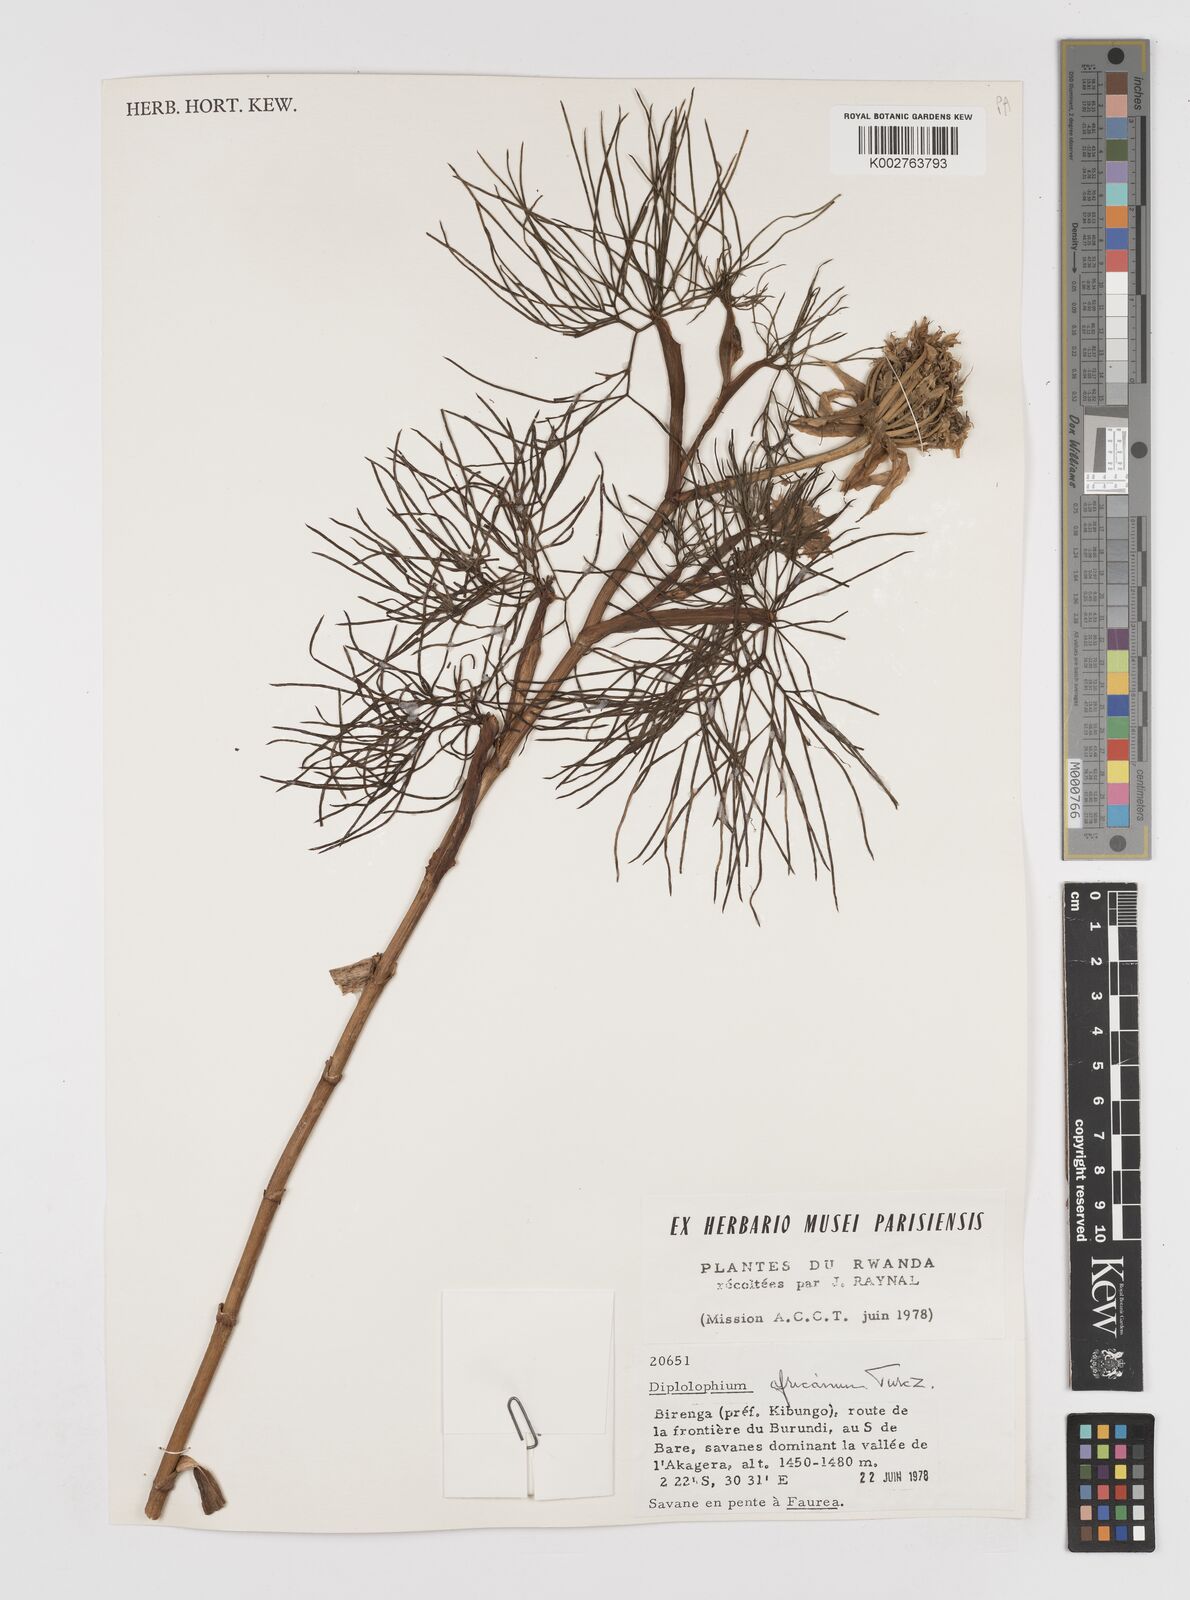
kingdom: Plantae
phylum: Tracheophyta
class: Magnoliopsida
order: Apiales
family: Apiaceae
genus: Diplolophium
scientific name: Diplolophium africanum
